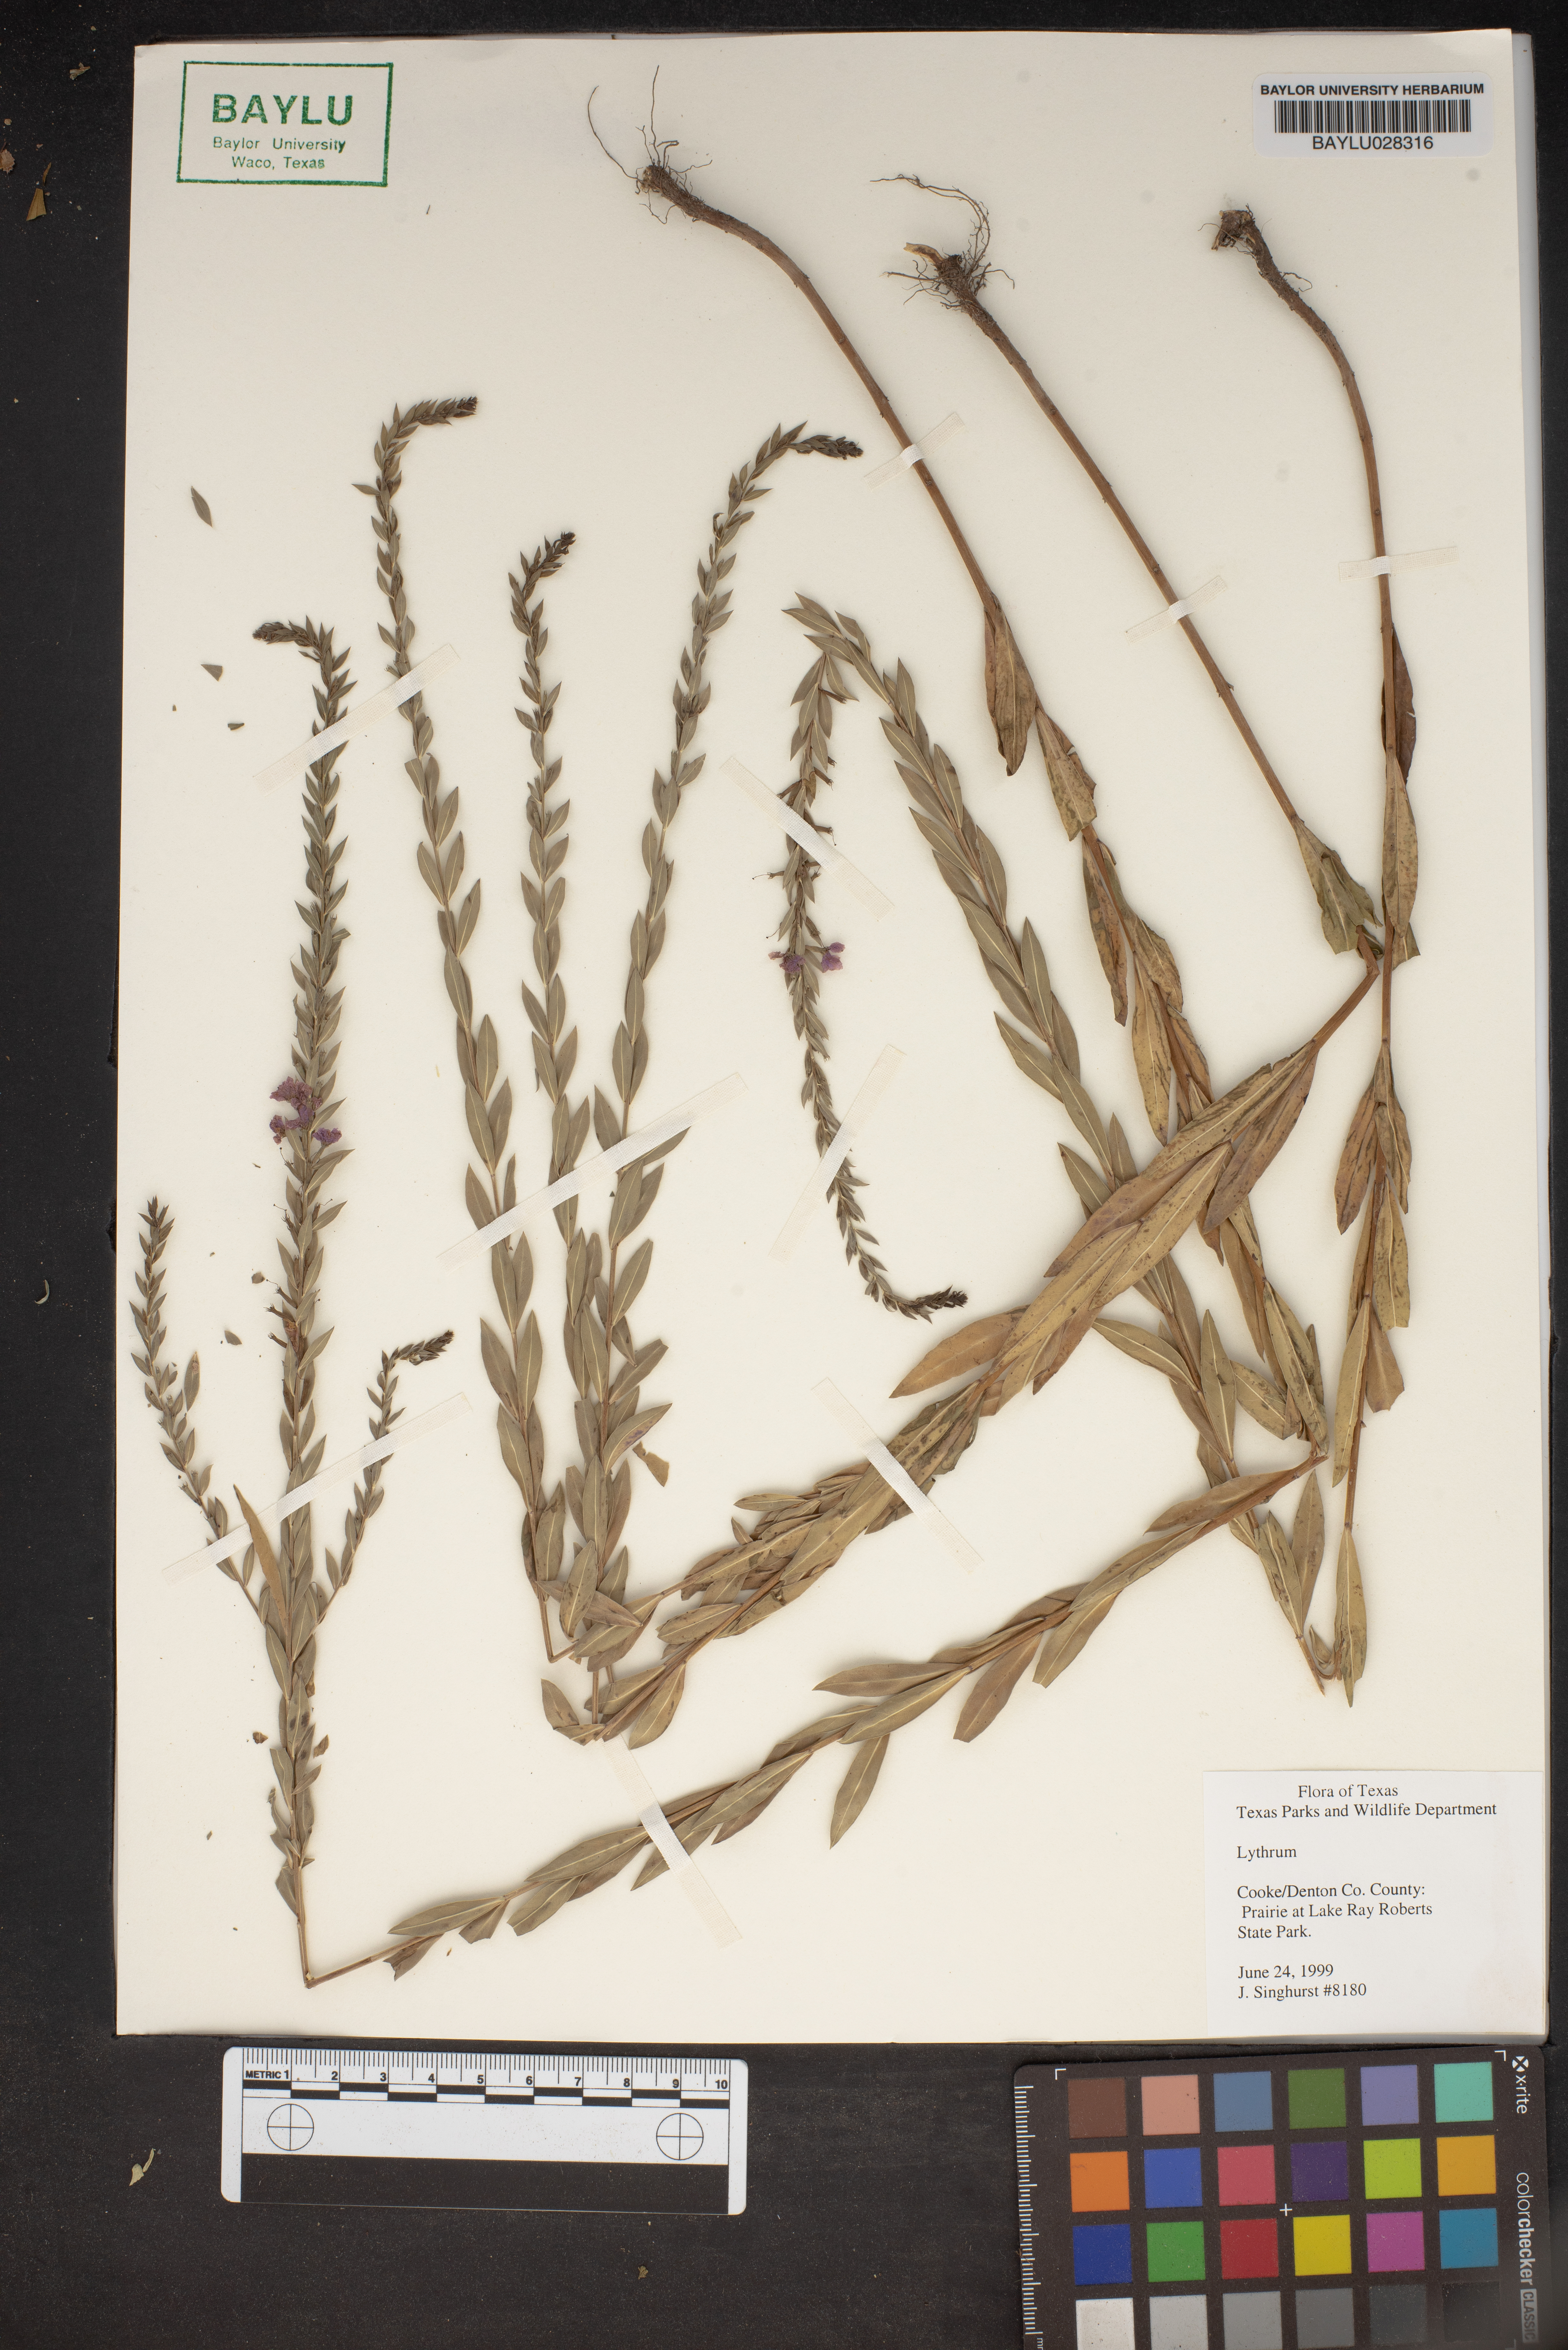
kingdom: Plantae
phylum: Tracheophyta
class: Magnoliopsida
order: Myrtales
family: Lythraceae
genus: Lythrum
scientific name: Lythrum
